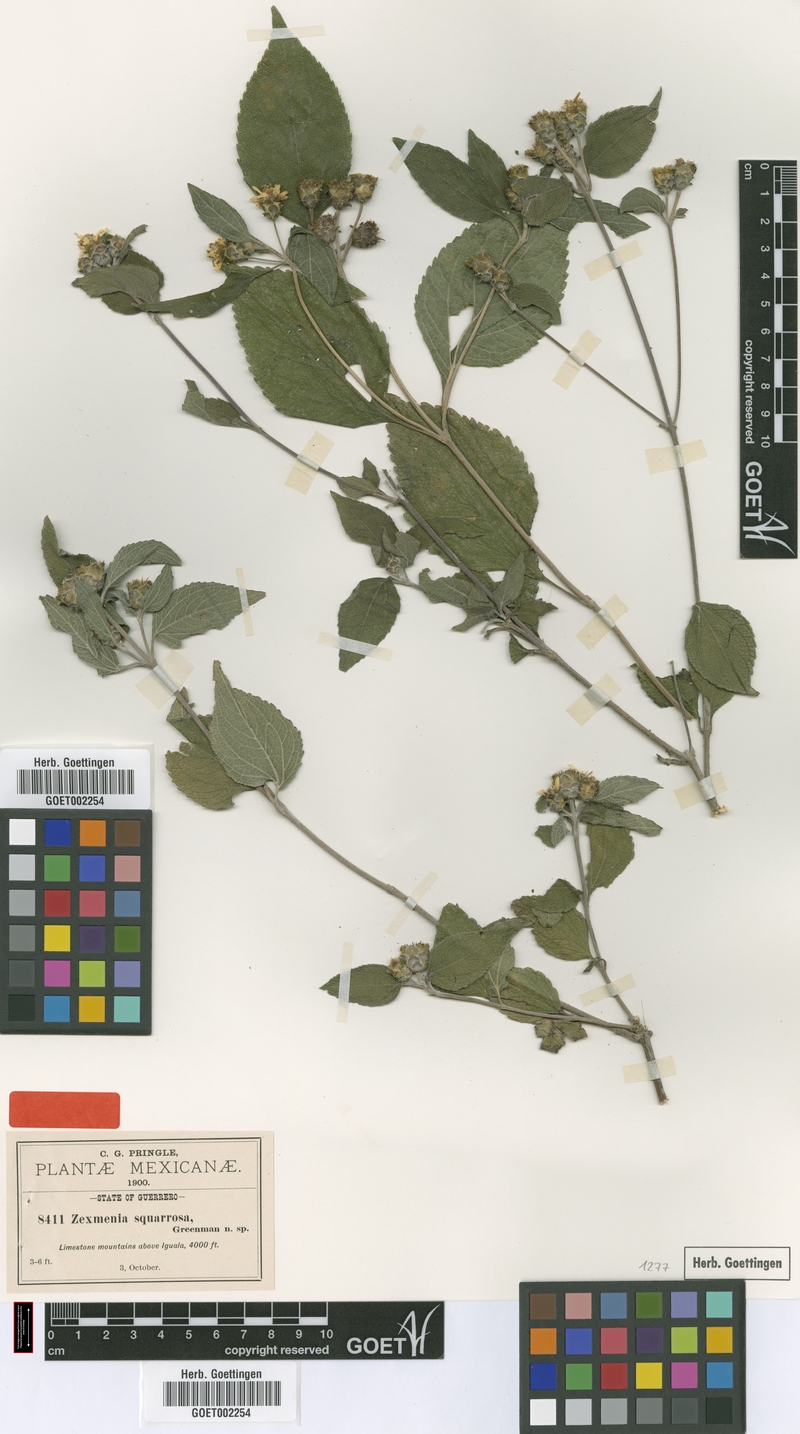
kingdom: Plantae
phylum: Tracheophyta
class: Magnoliopsida
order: Asterales
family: Asteraceae
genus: Lasianthaea
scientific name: Lasianthaea squarrosa
